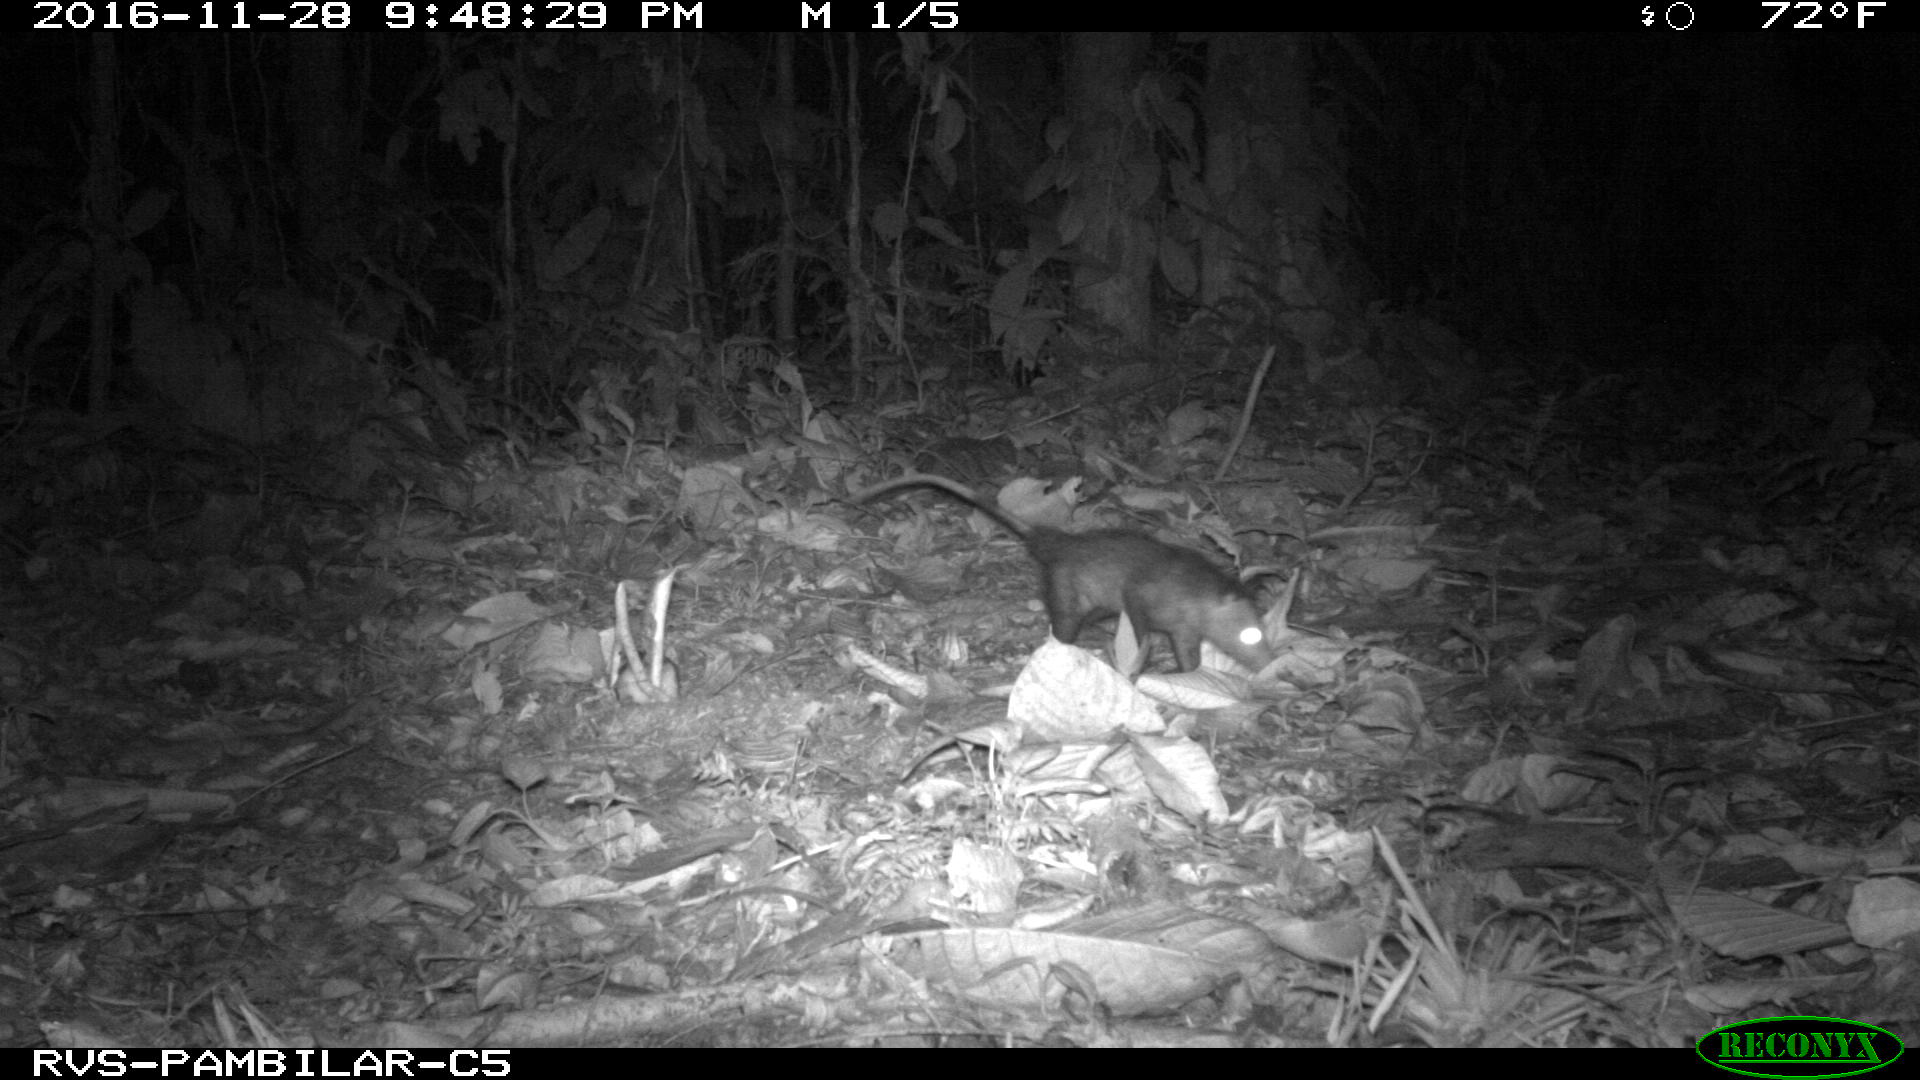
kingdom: Animalia
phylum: Chordata
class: Mammalia
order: Didelphimorphia
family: Didelphidae
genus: Didelphis
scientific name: Didelphis marsupialis
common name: Common opossum
